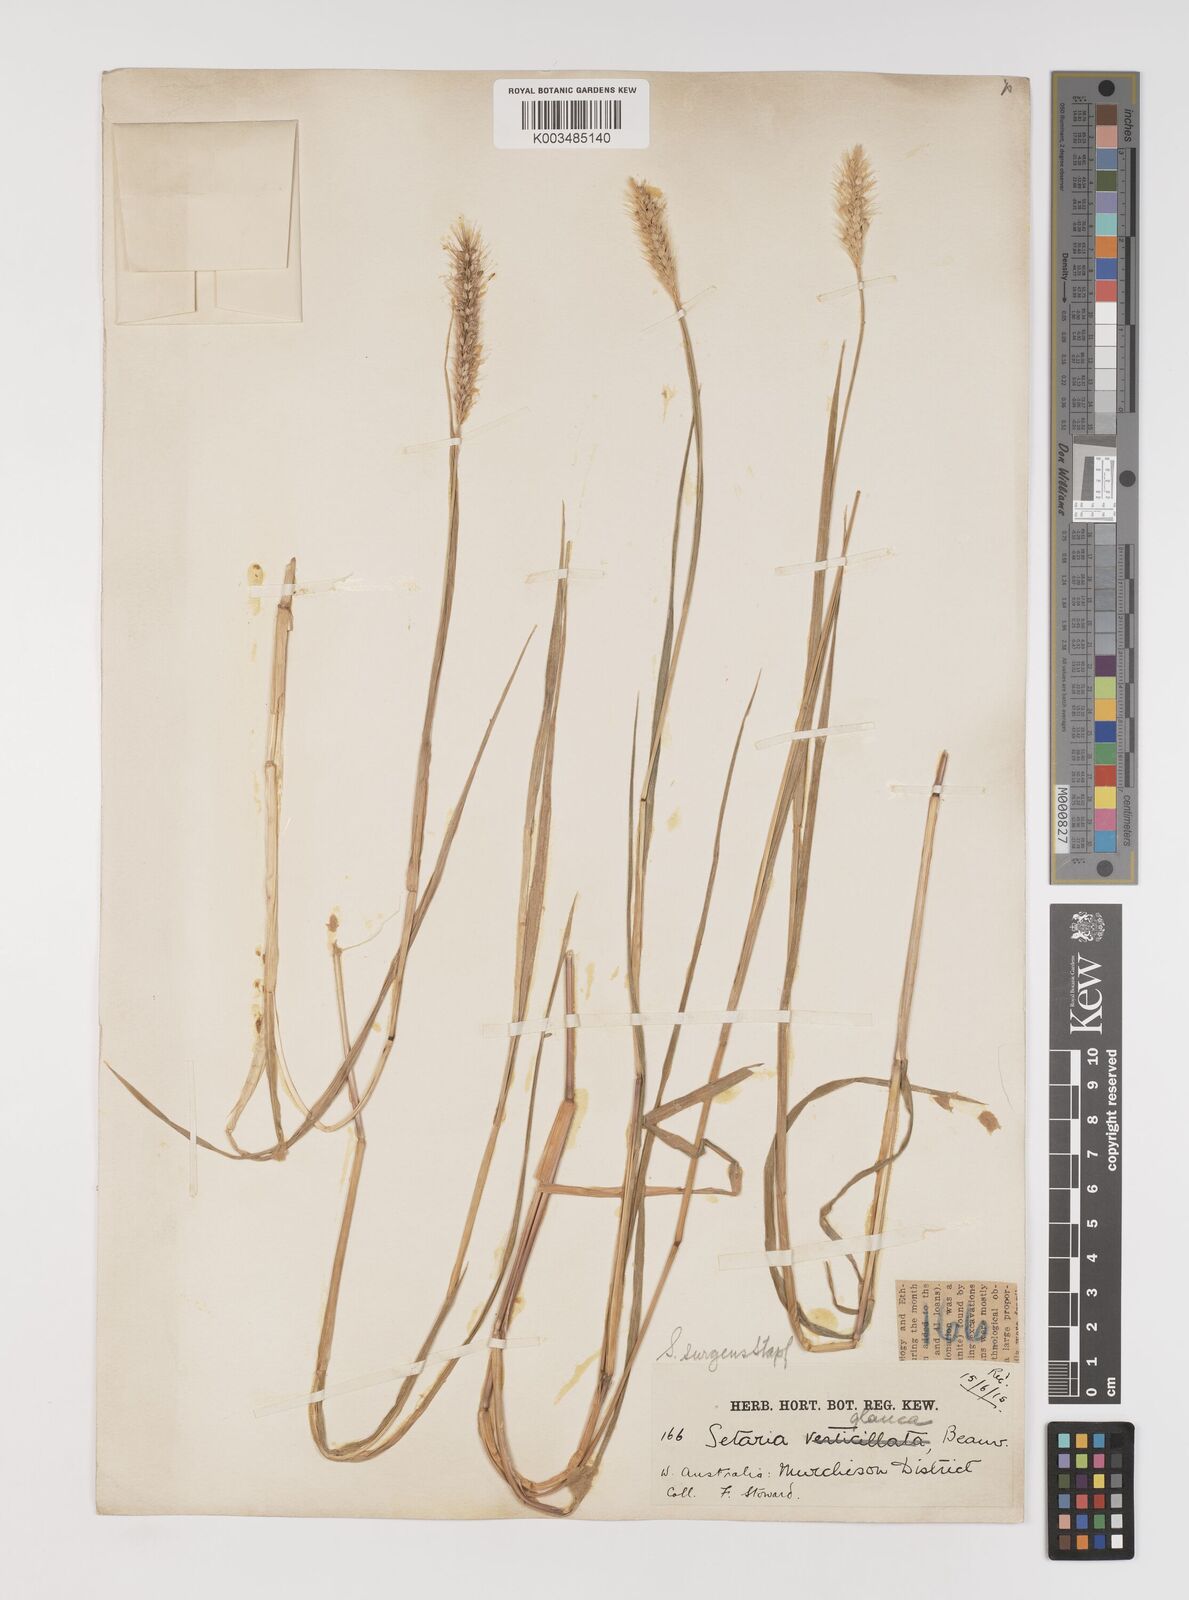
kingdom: Plantae
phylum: Tracheophyta
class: Liliopsida
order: Poales
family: Poaceae
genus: Setaria
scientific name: Setaria apiculata
